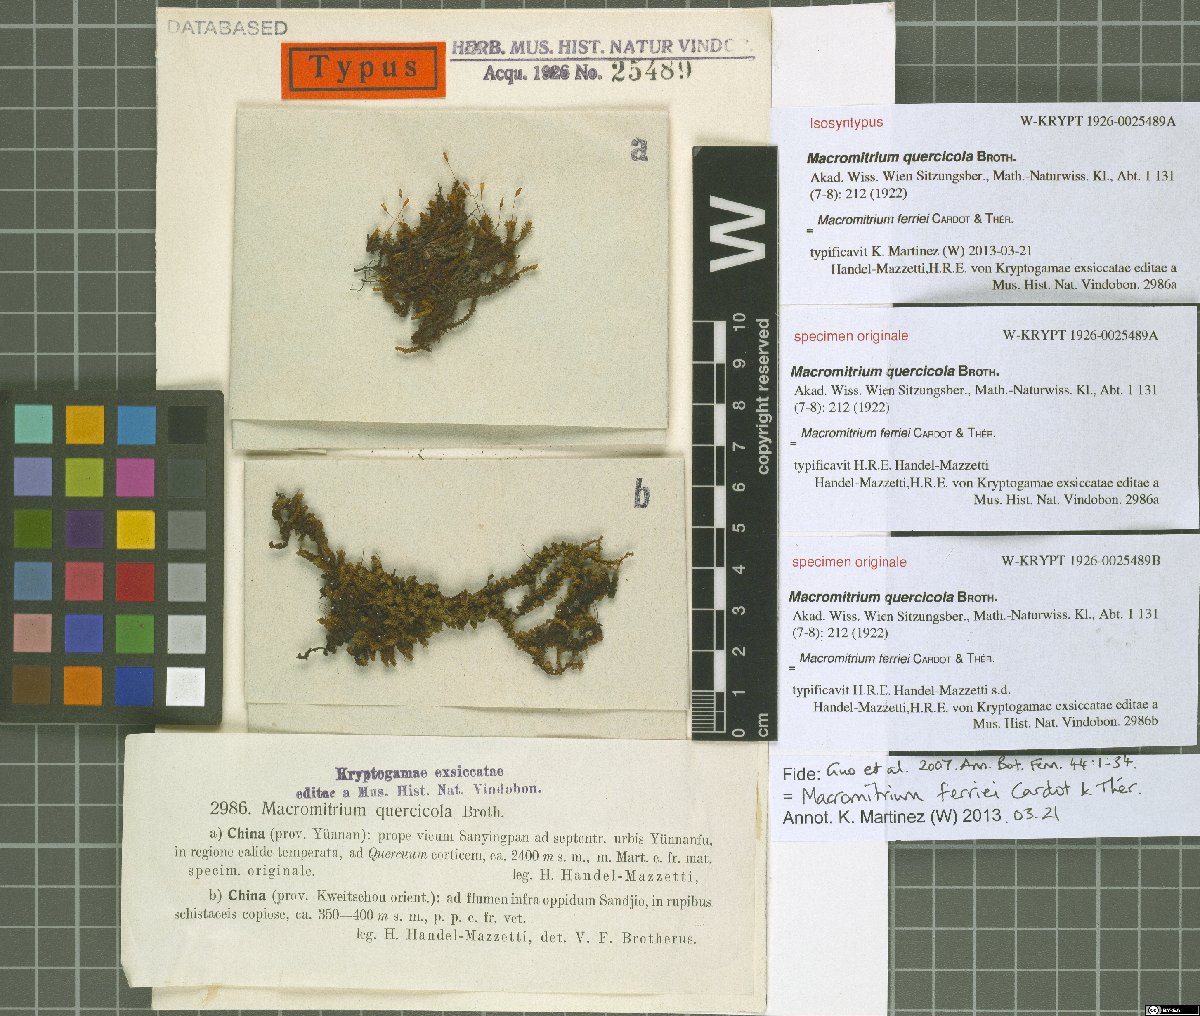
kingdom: Plantae
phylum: Bryophyta
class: Bryopsida
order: Orthotrichales
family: Orthotrichaceae
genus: Macromitrium
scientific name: Macromitrium ferriei
